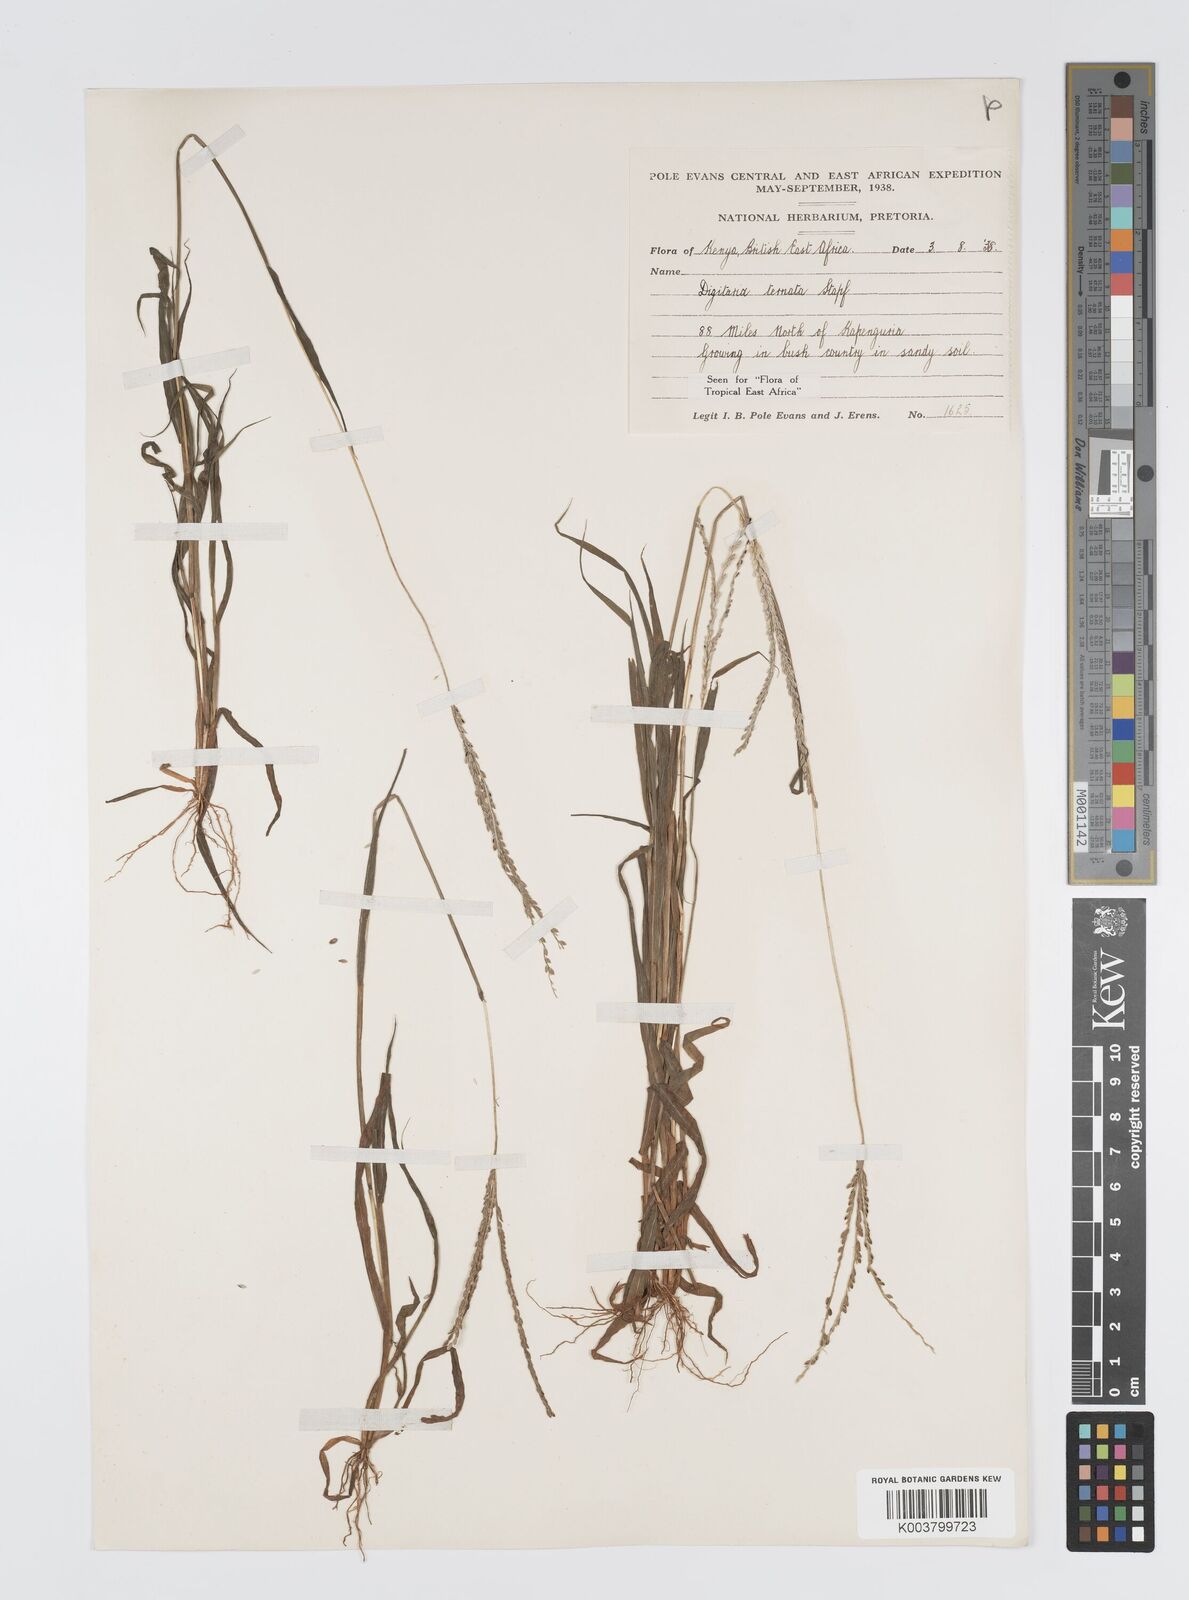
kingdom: Plantae
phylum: Tracheophyta
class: Liliopsida
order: Poales
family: Poaceae
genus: Digitaria
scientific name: Digitaria ternata
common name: Blackseed crabgrass
